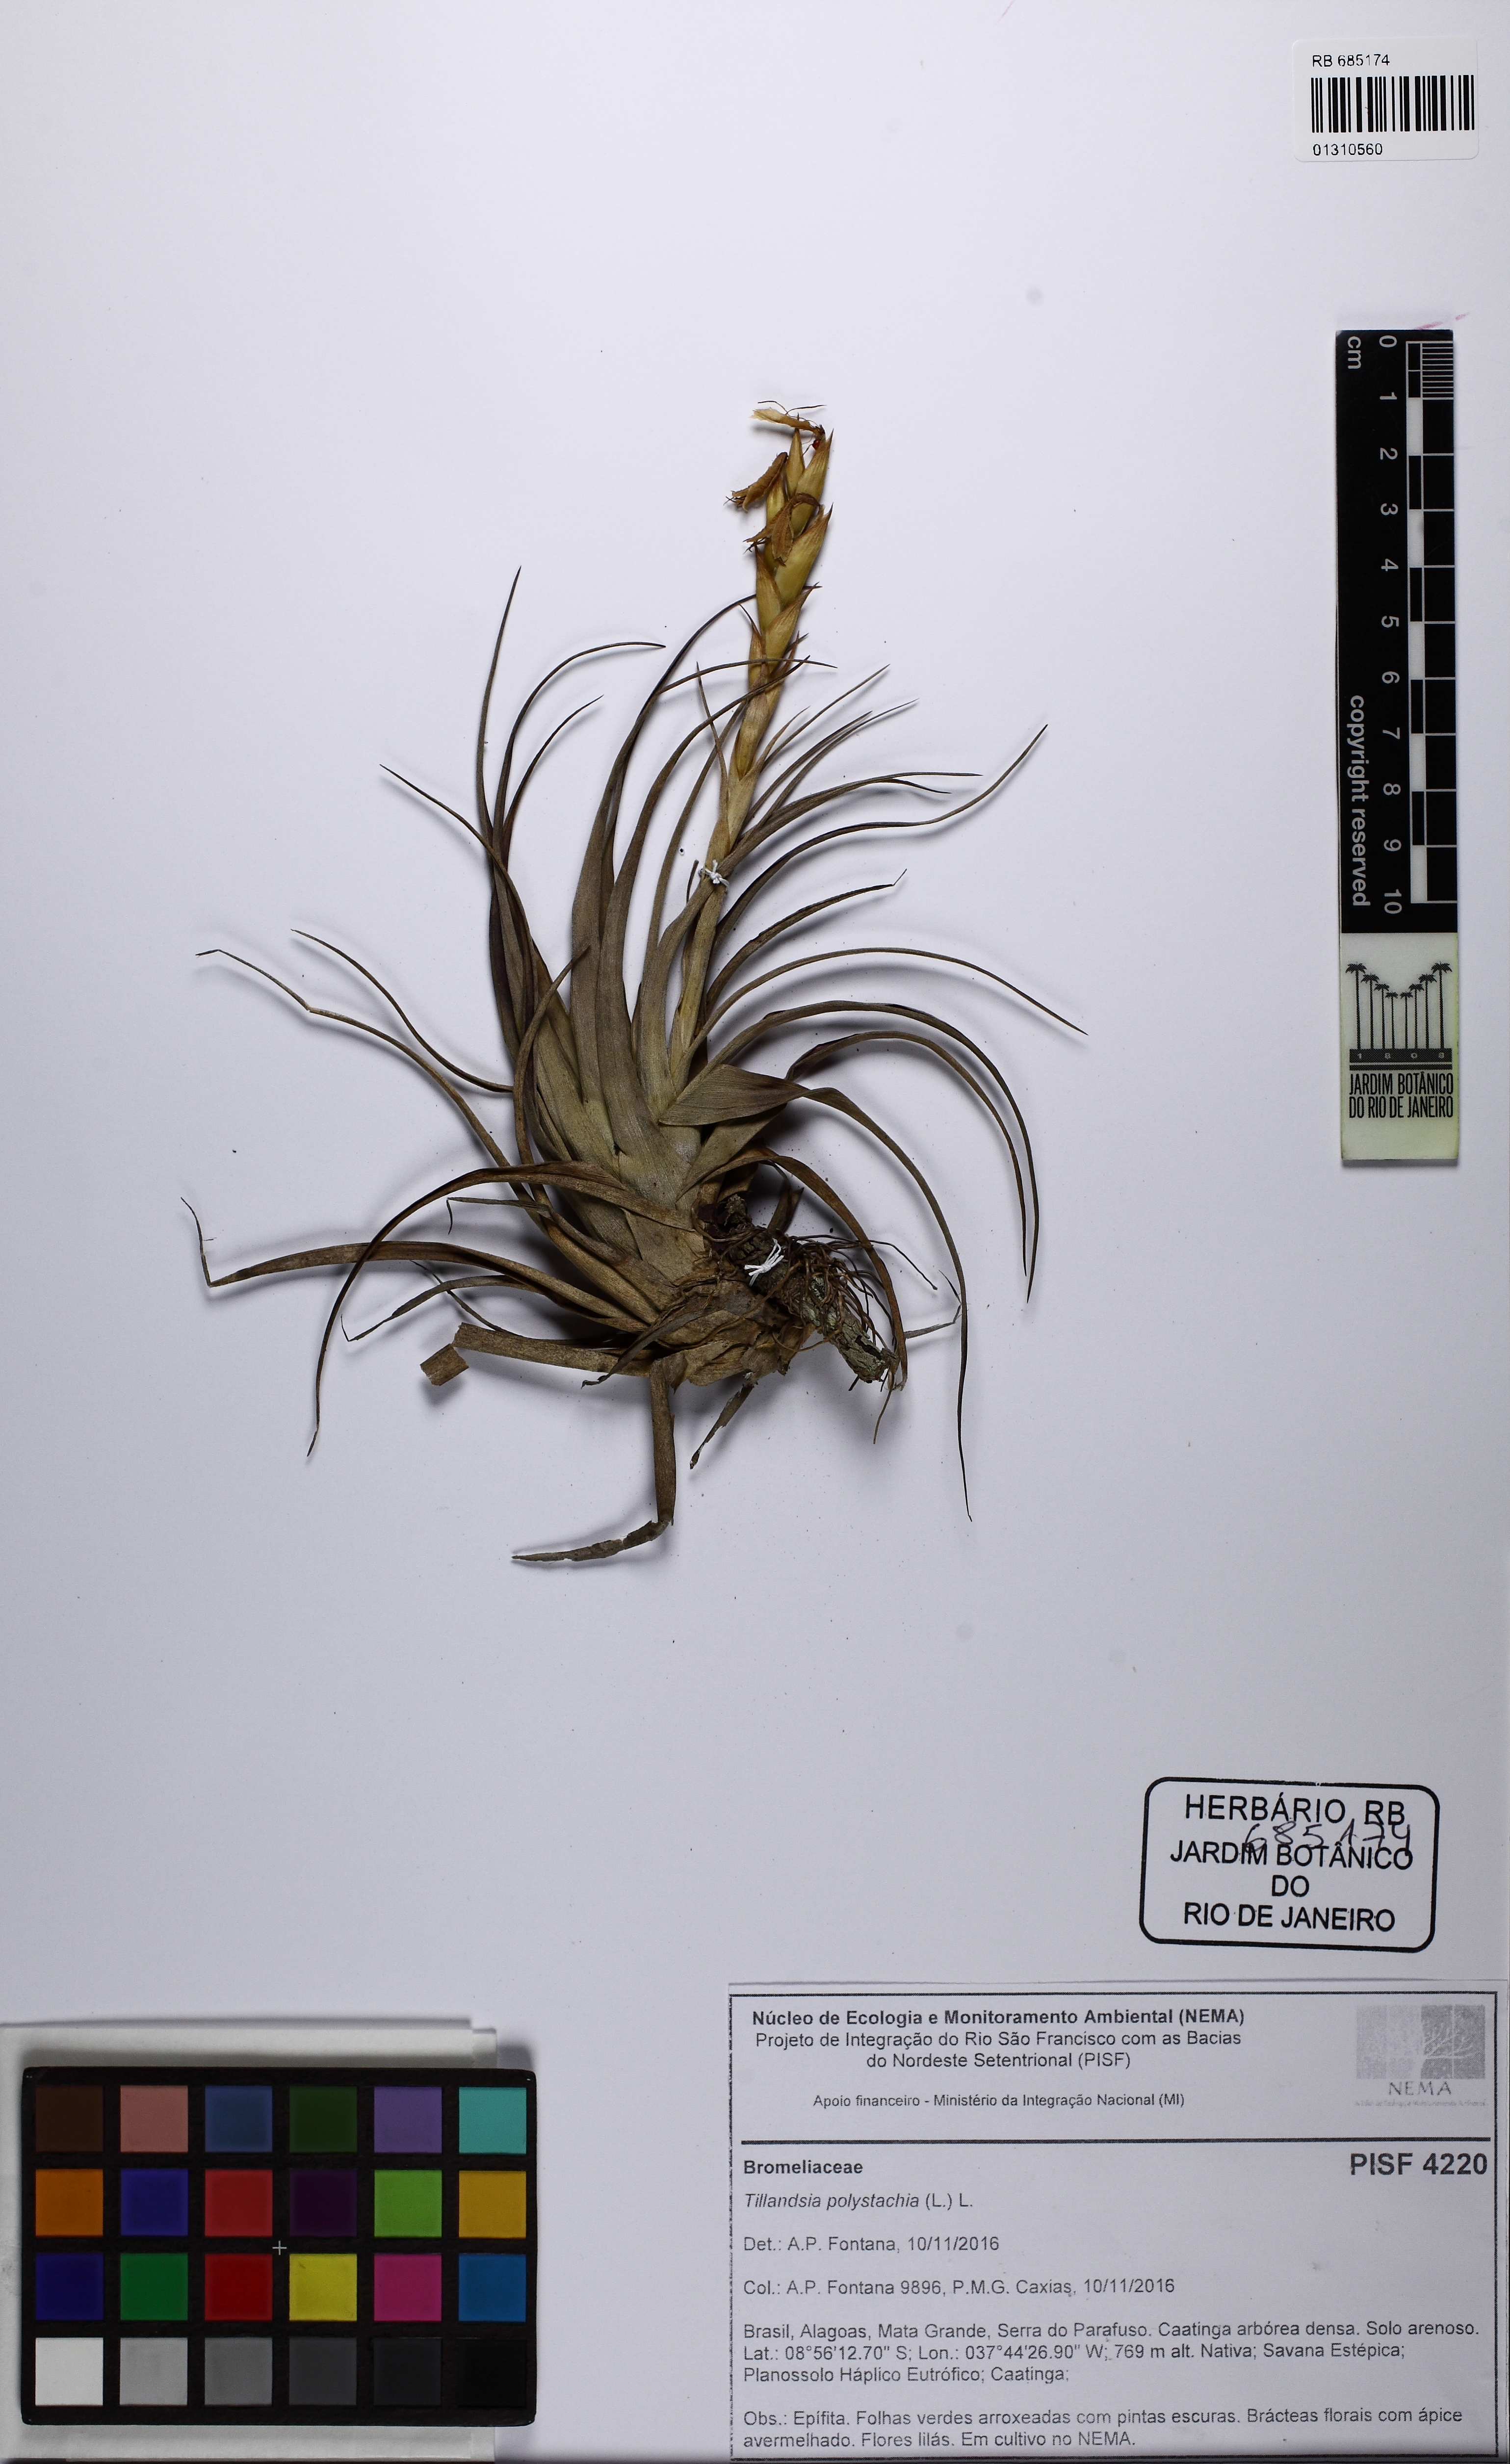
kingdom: Plantae
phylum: Tracheophyta
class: Liliopsida
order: Poales
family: Bromeliaceae
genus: Tillandsia
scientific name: Tillandsia polystachia
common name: Airplant
